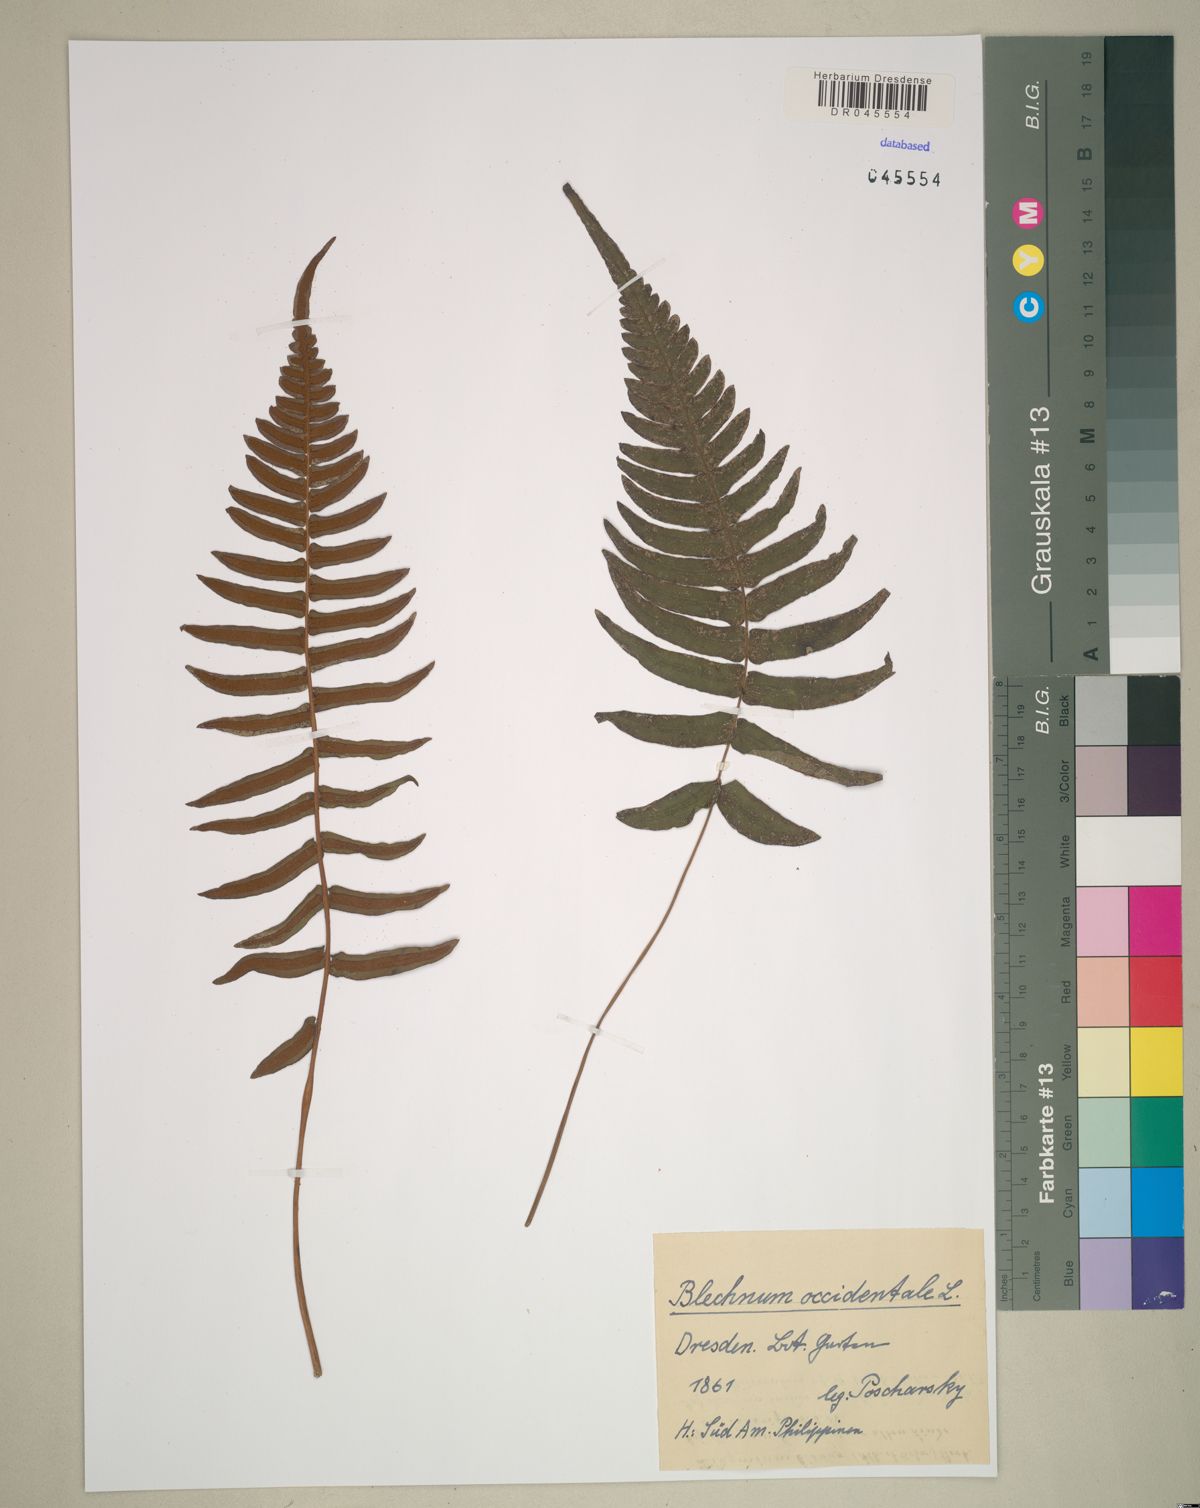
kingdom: Plantae
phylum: Tracheophyta
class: Polypodiopsida
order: Polypodiales
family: Blechnaceae
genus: Blechnum
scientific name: Blechnum occidentale
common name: Hammock fern
